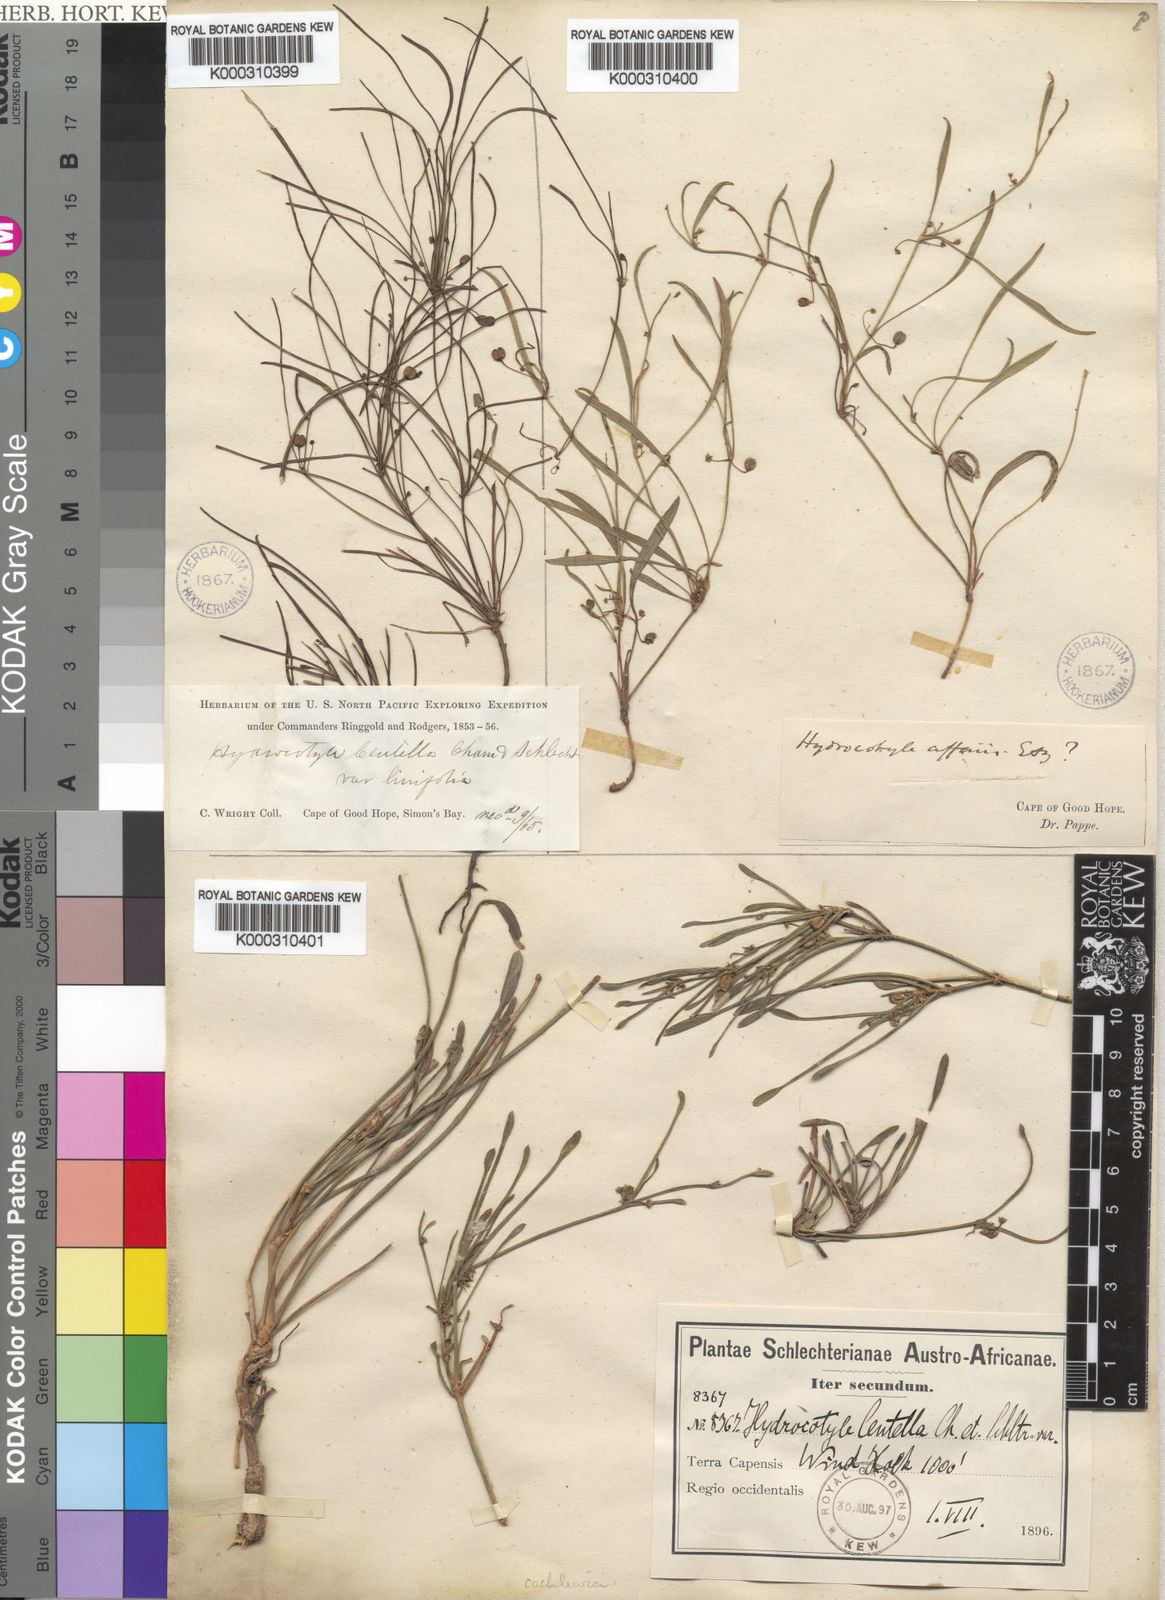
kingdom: Plantae
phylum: Tracheophyta
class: Magnoliopsida
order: Apiales
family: Apiaceae
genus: Centella
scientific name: Centella cochlearia
